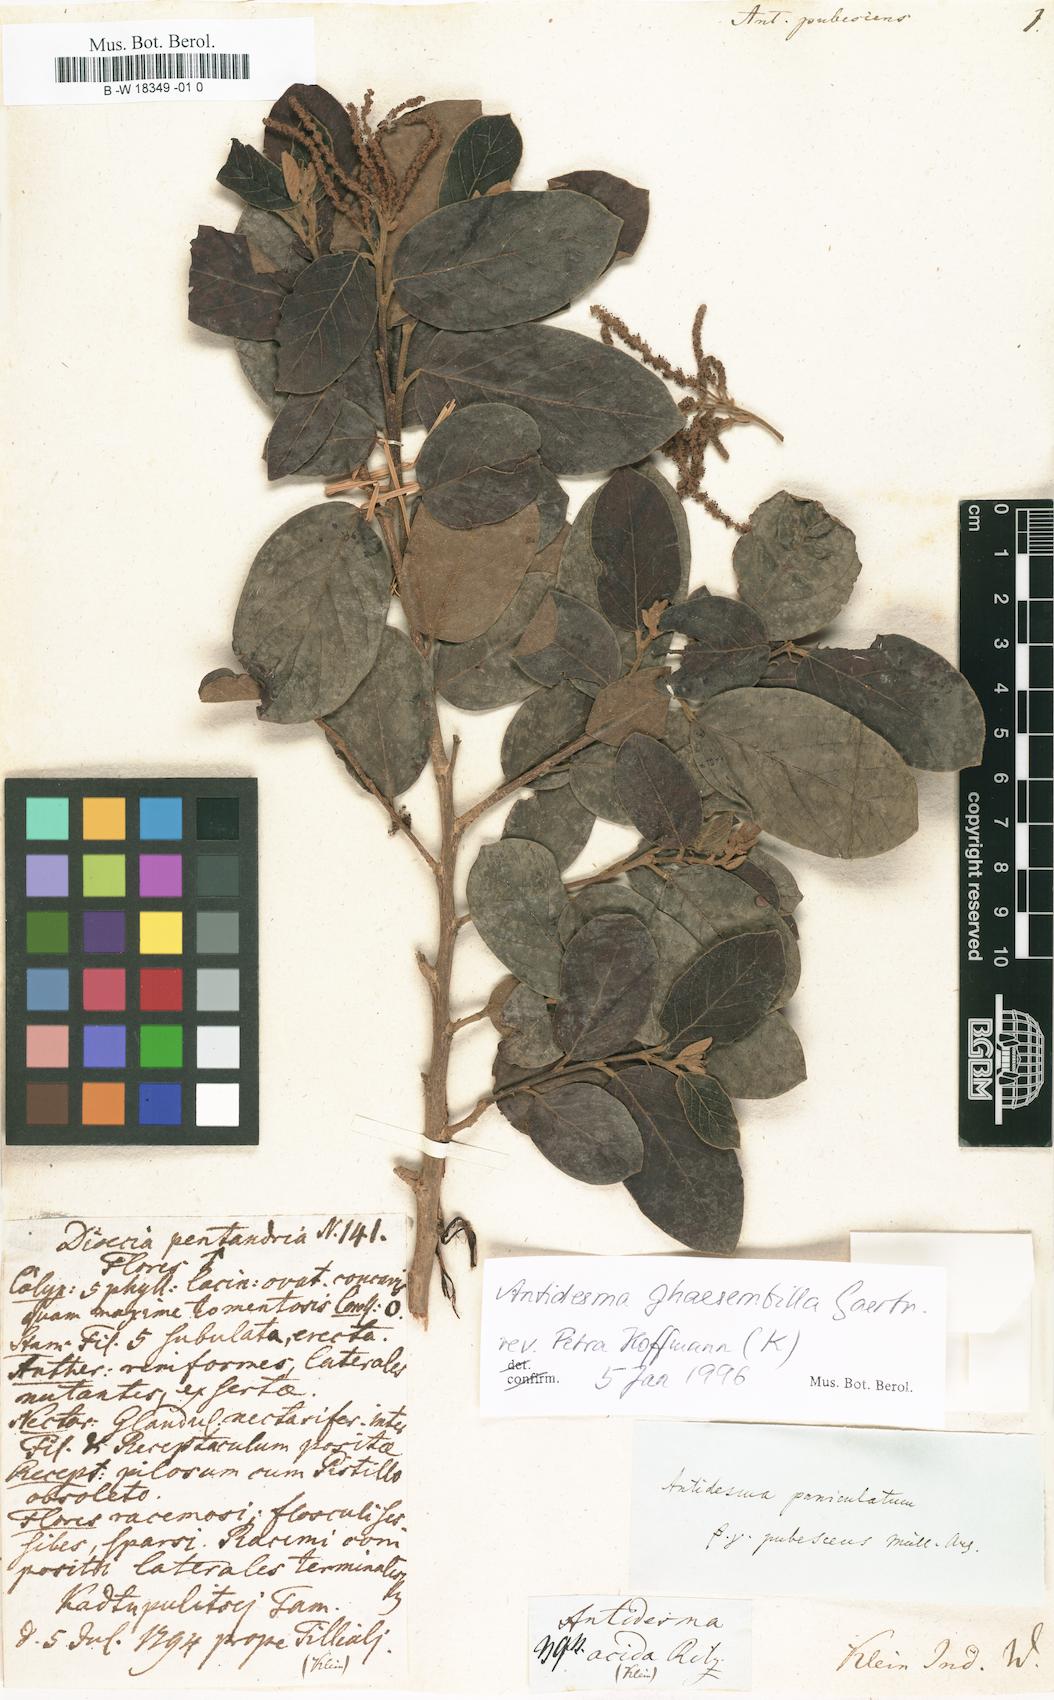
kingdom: Plantae
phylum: Tracheophyta
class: Magnoliopsida
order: Malpighiales
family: Phyllanthaceae
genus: Antidesma
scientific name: Antidesma
